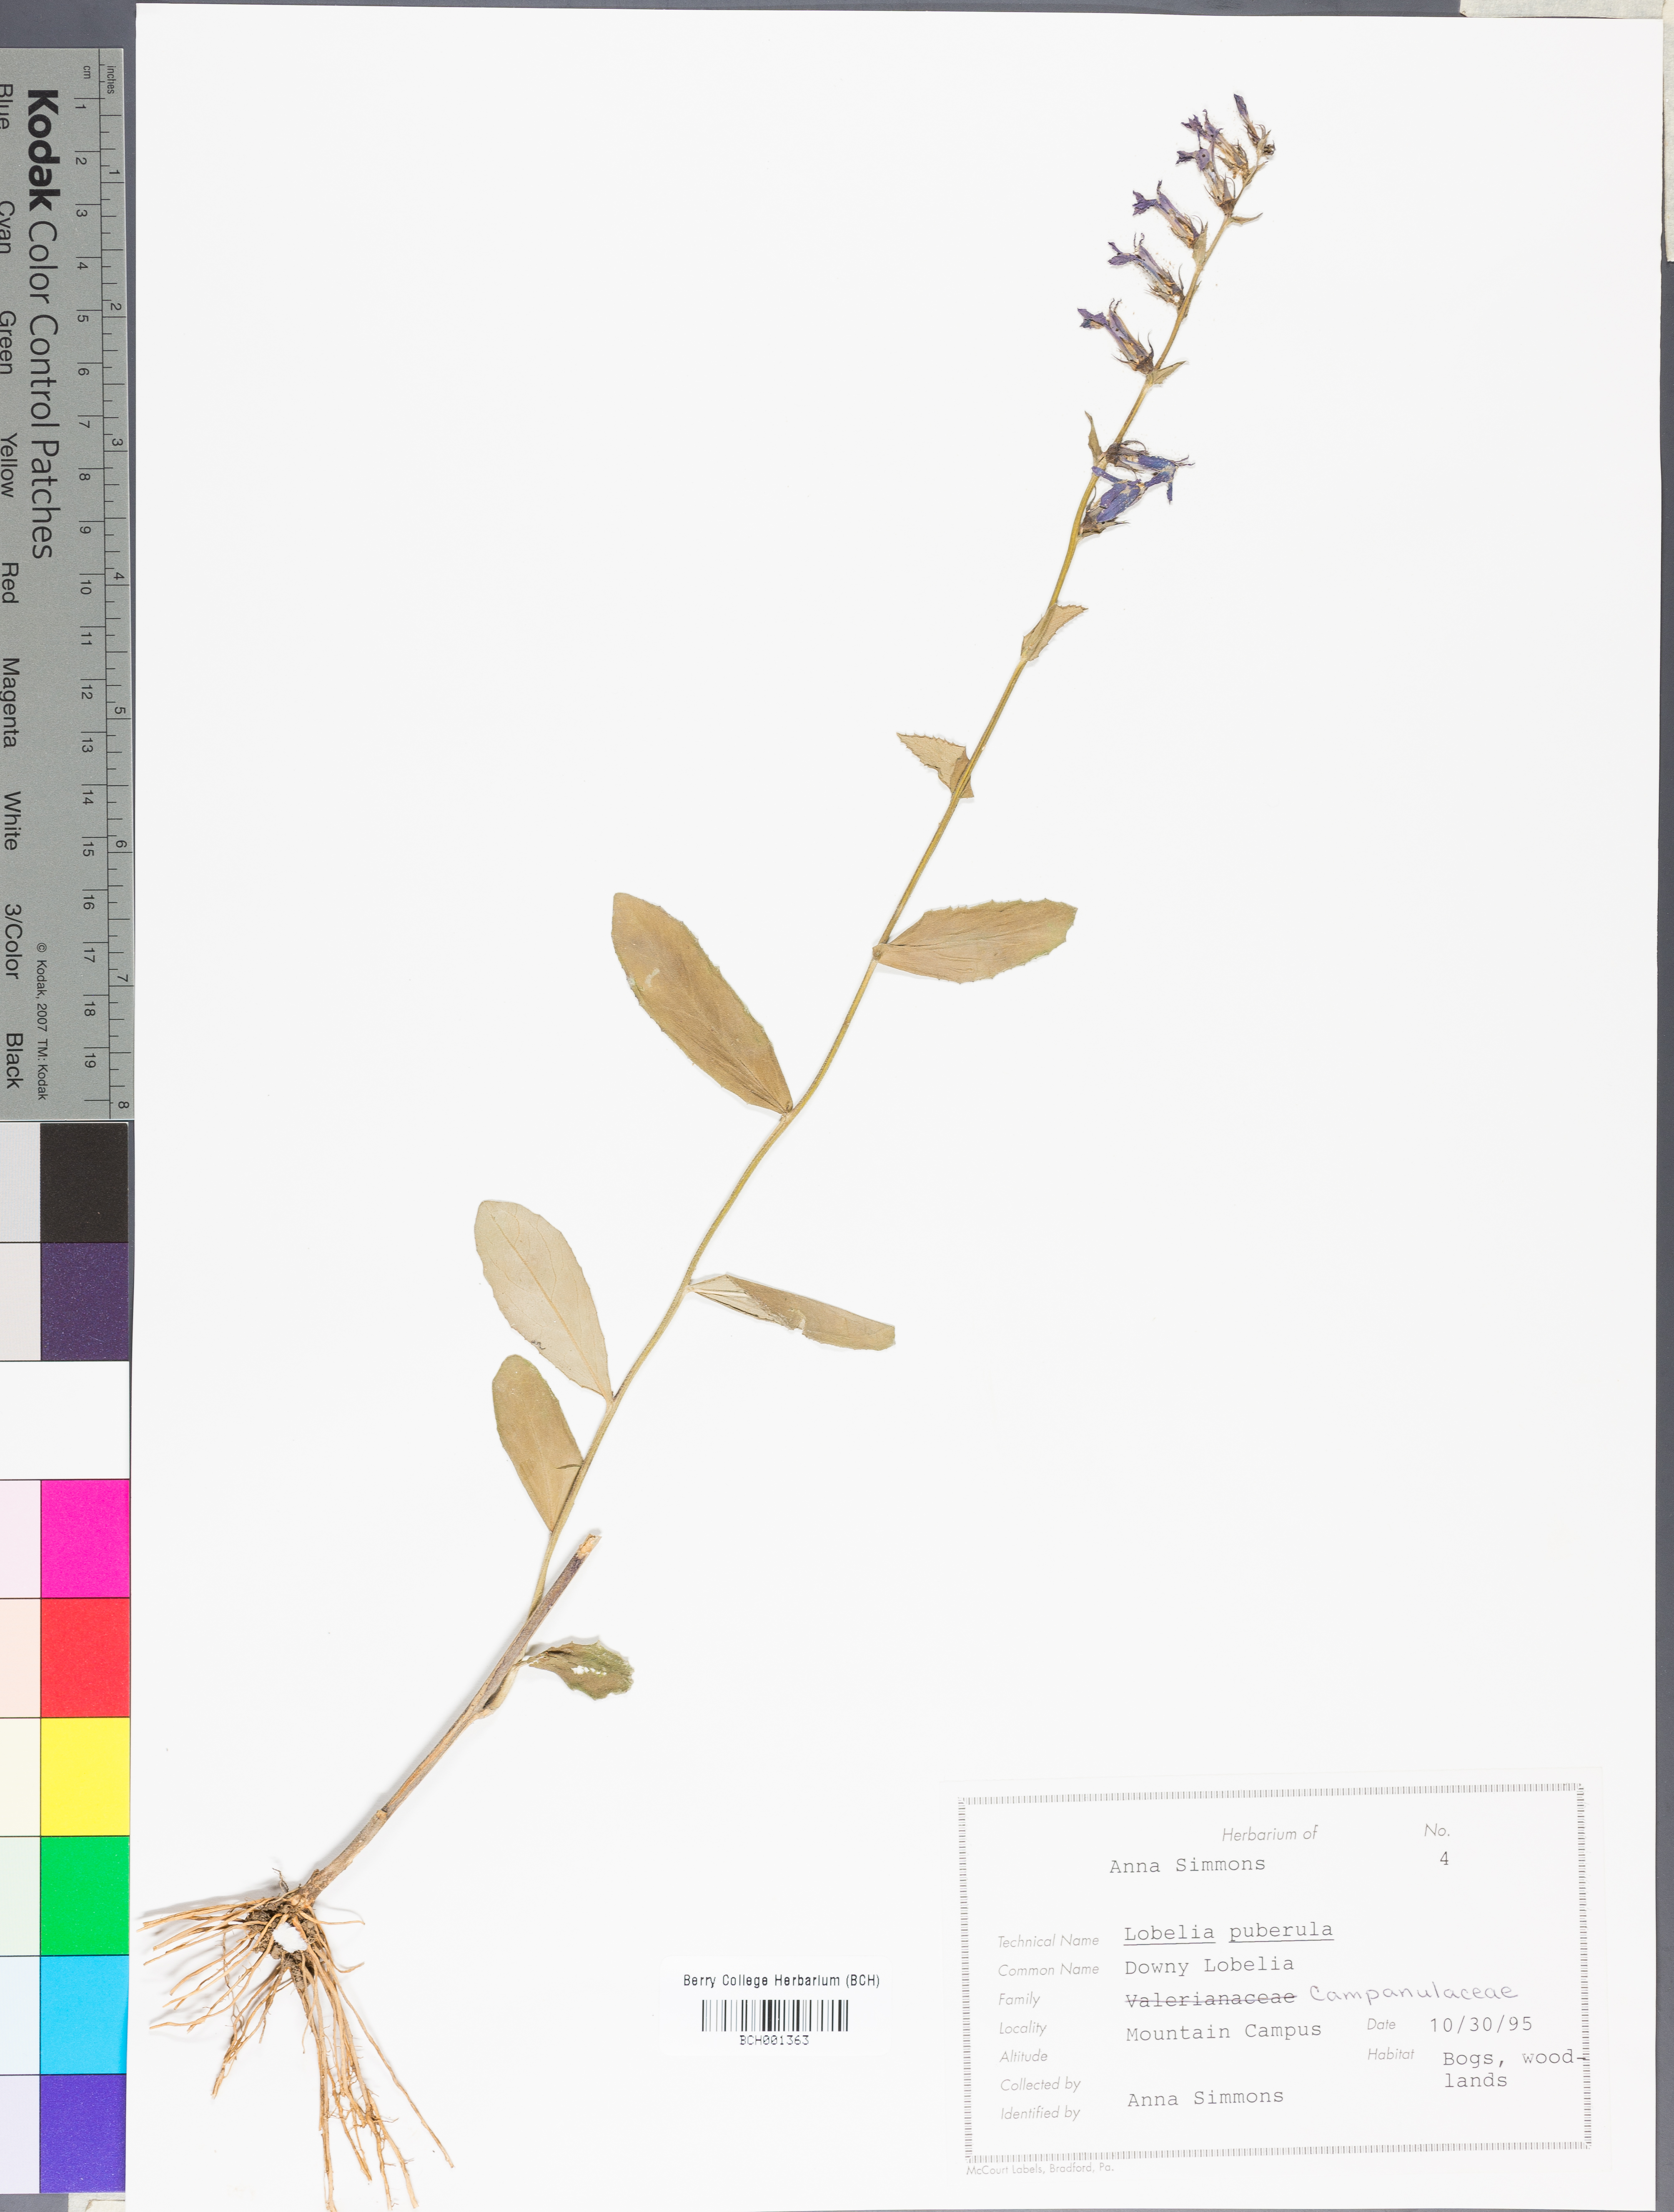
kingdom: Plantae
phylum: Tracheophyta
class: Magnoliopsida
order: Asterales
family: Campanulaceae
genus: Lobelia
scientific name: Lobelia puberula
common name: Purple dewdrop
